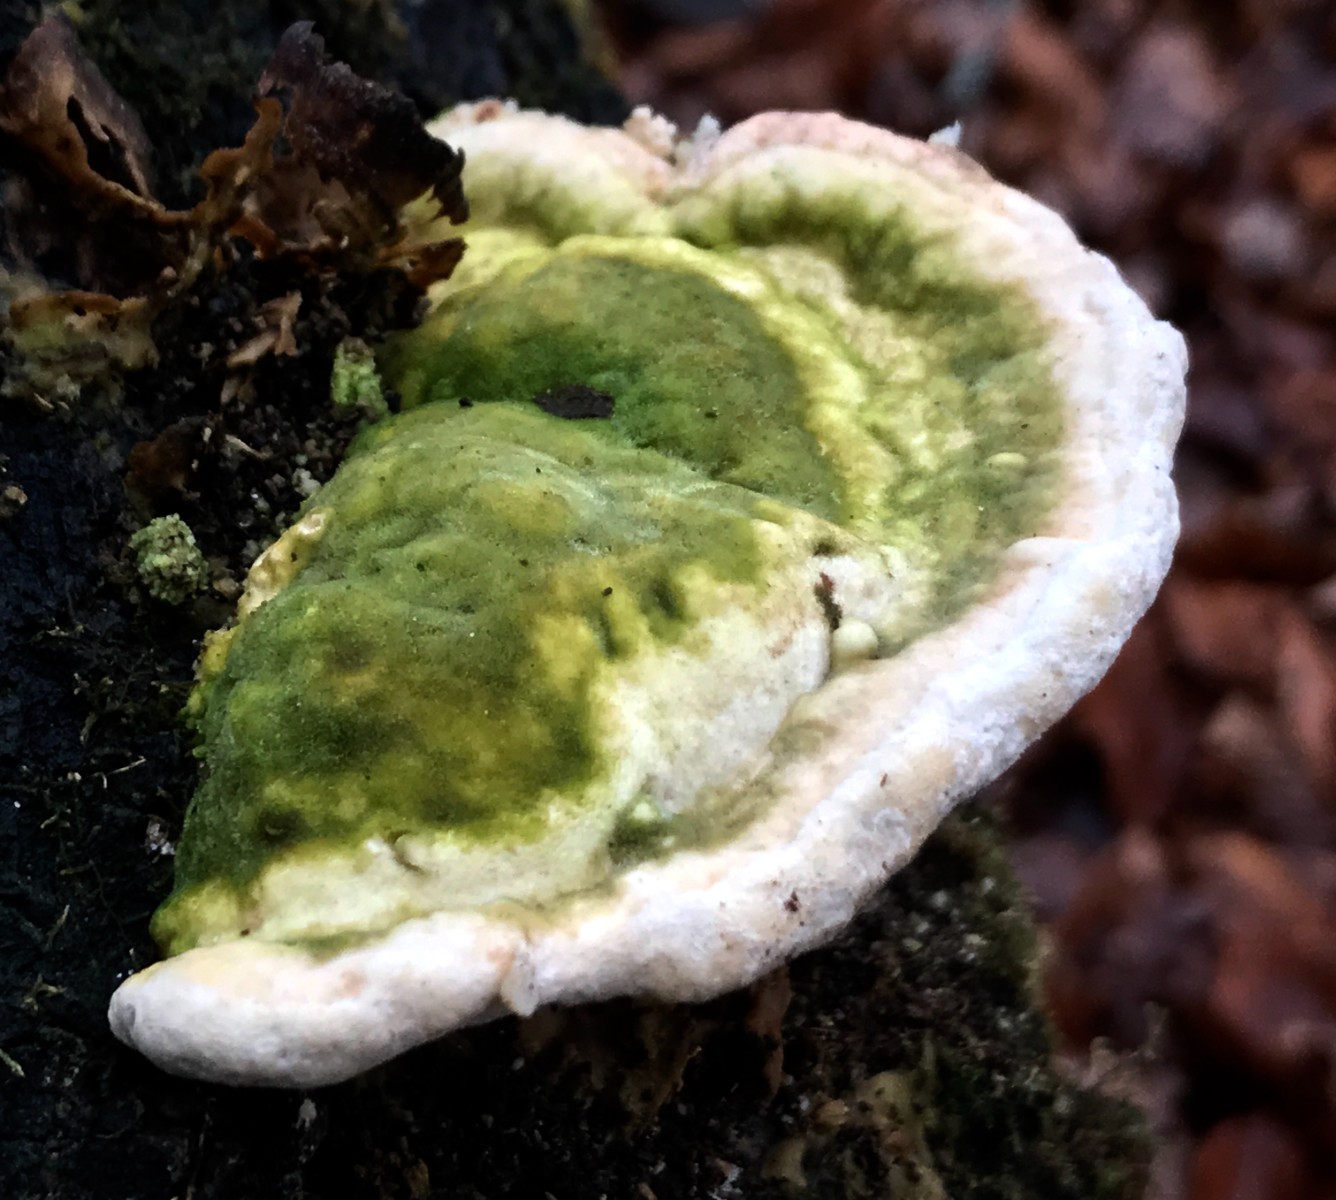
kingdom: Fungi
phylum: Basidiomycota
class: Agaricomycetes
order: Polyporales
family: Polyporaceae
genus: Trametes
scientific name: Trametes hirsuta
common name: håret læderporesvamp
